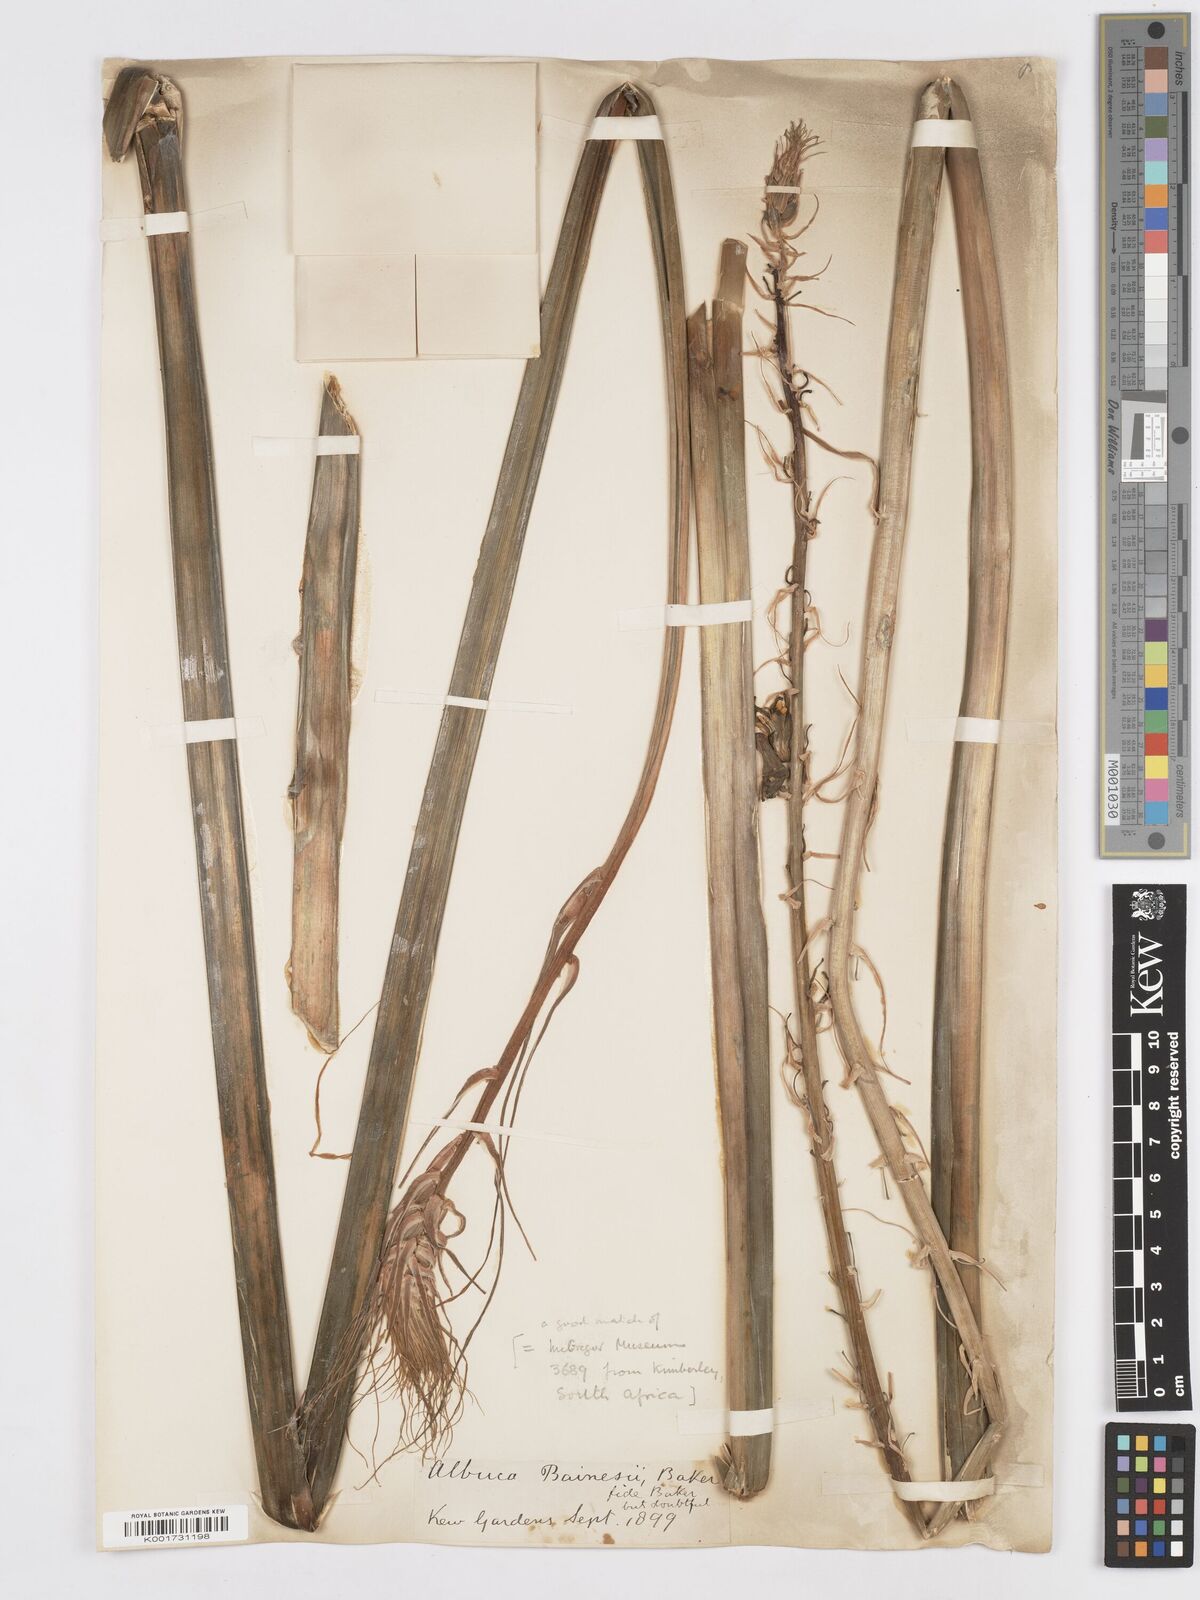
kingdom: Plantae
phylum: Tracheophyta
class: Liliopsida
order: Asparagales
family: Asparagaceae
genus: Albuca
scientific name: Albuca abyssinica
